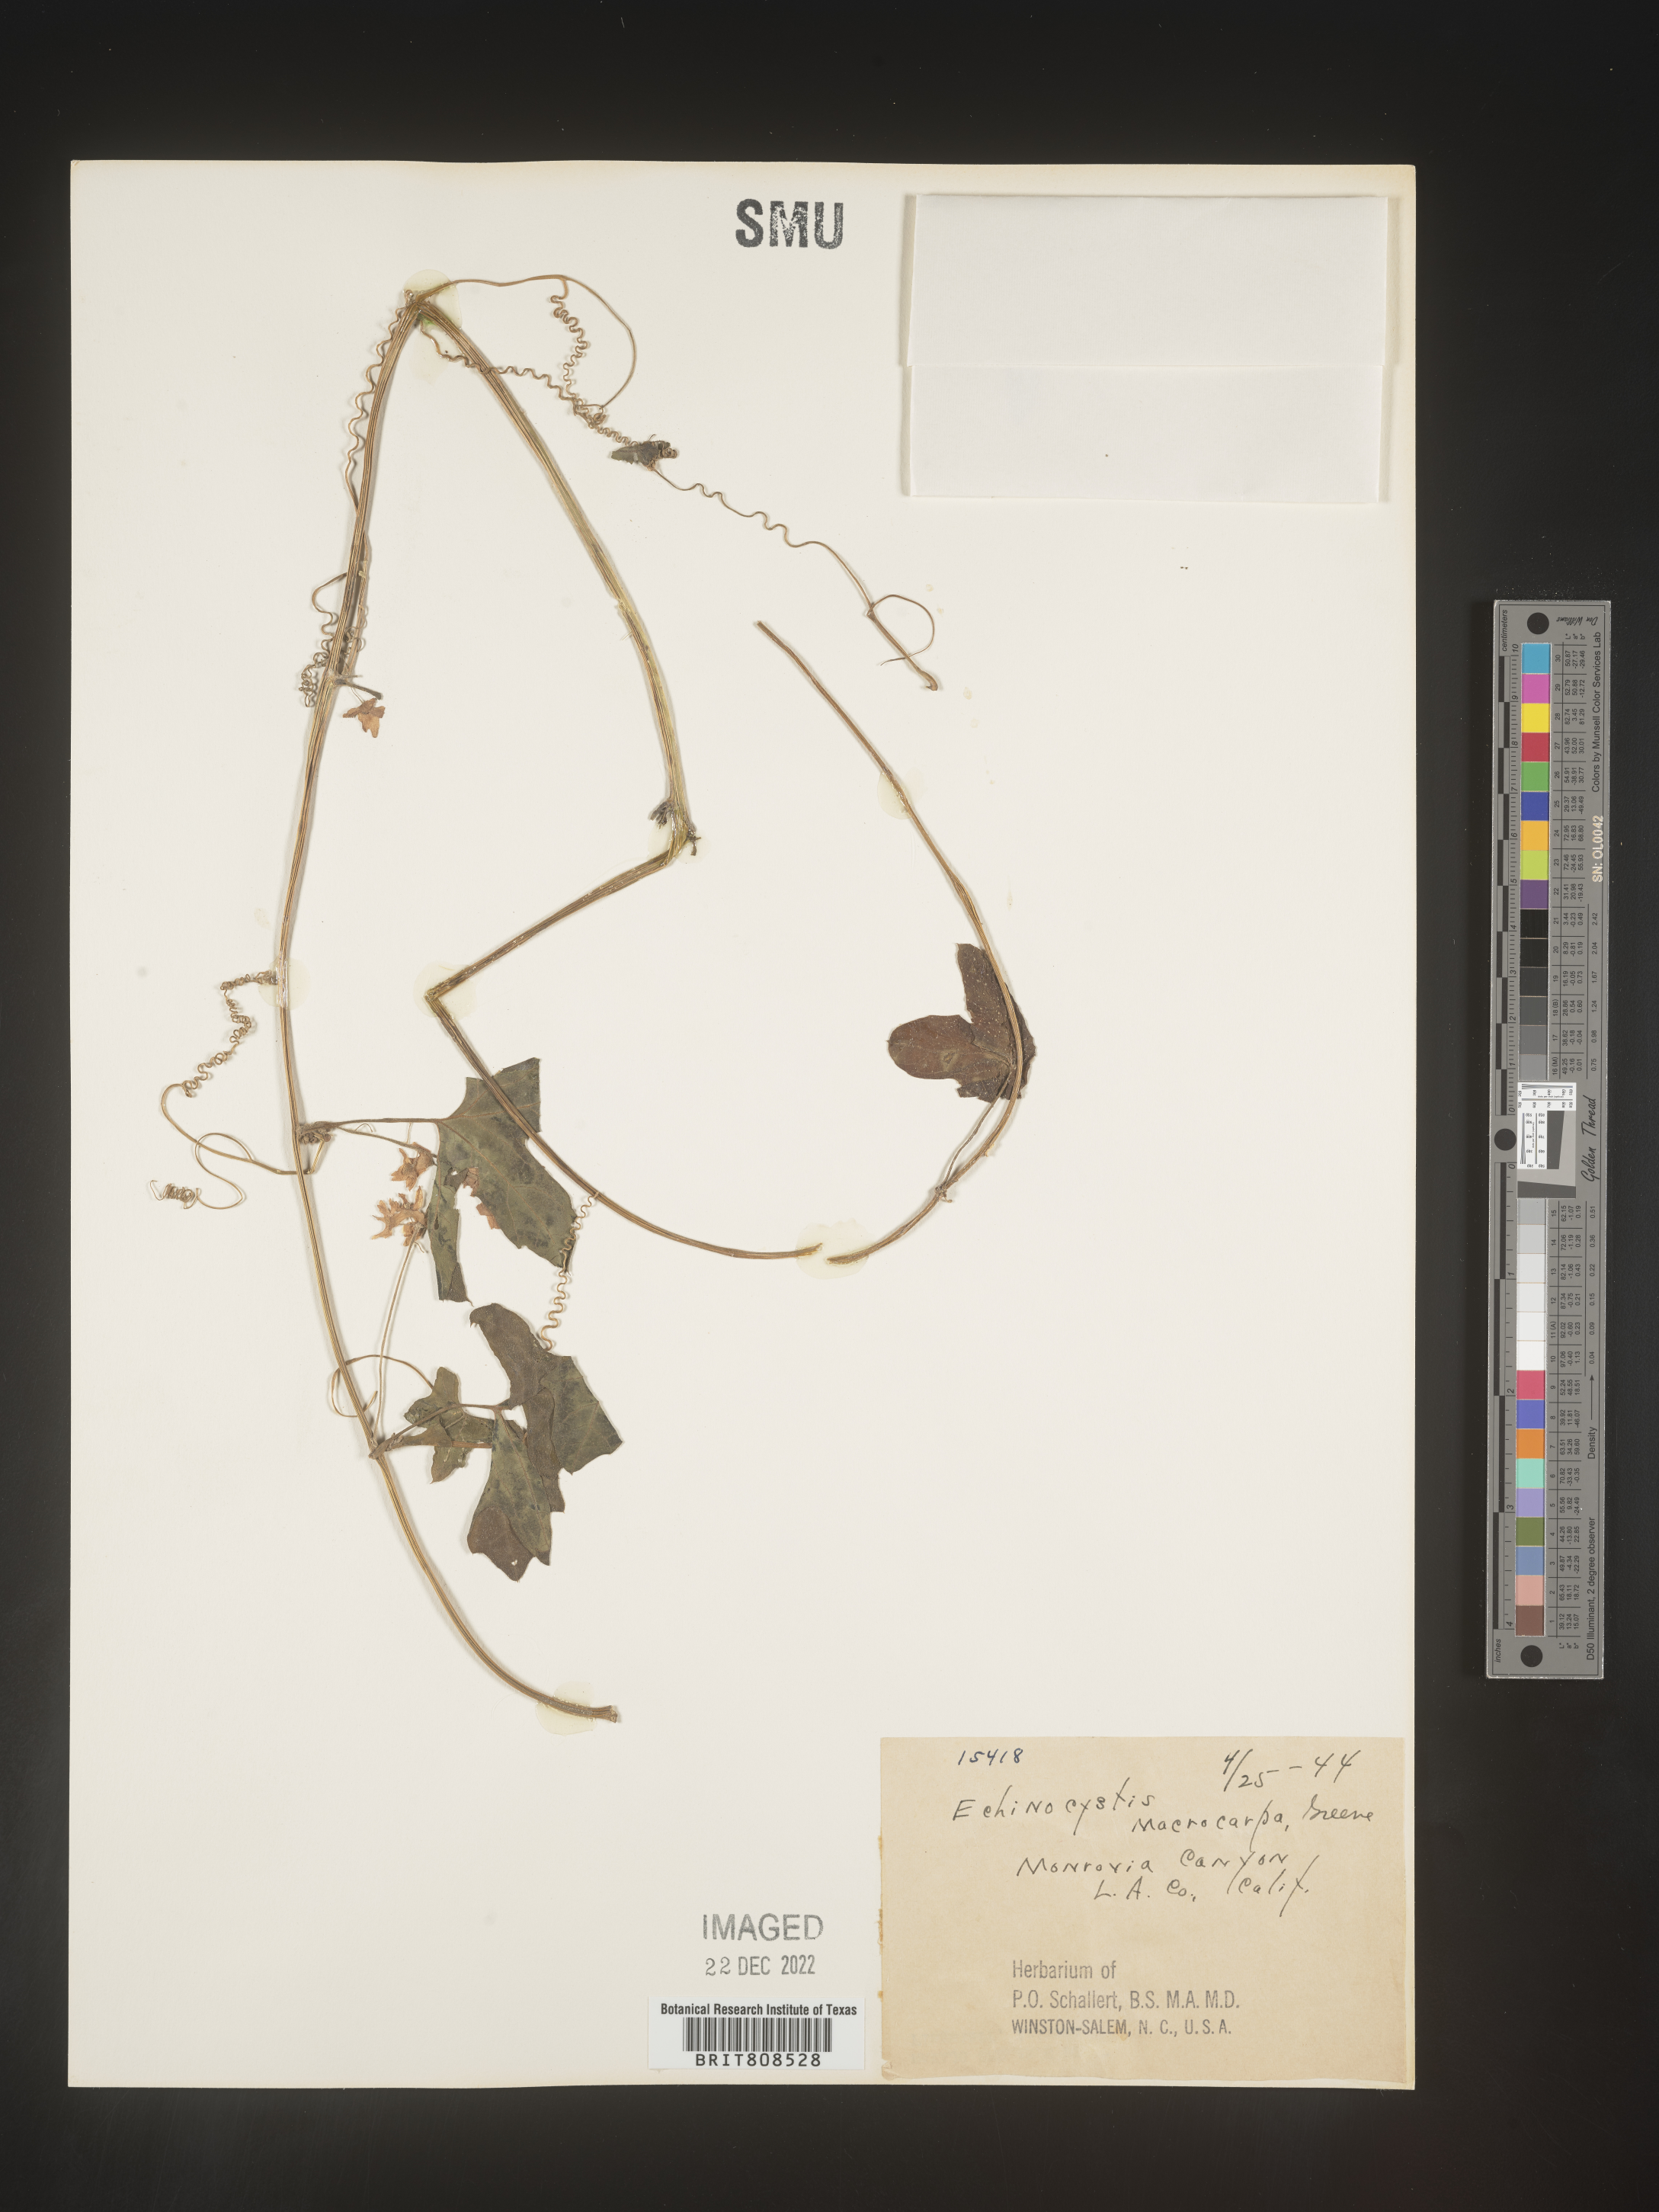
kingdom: Plantae
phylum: Tracheophyta
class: Magnoliopsida
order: Cucurbitales
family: Cucurbitaceae
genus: Marah
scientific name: Marah
